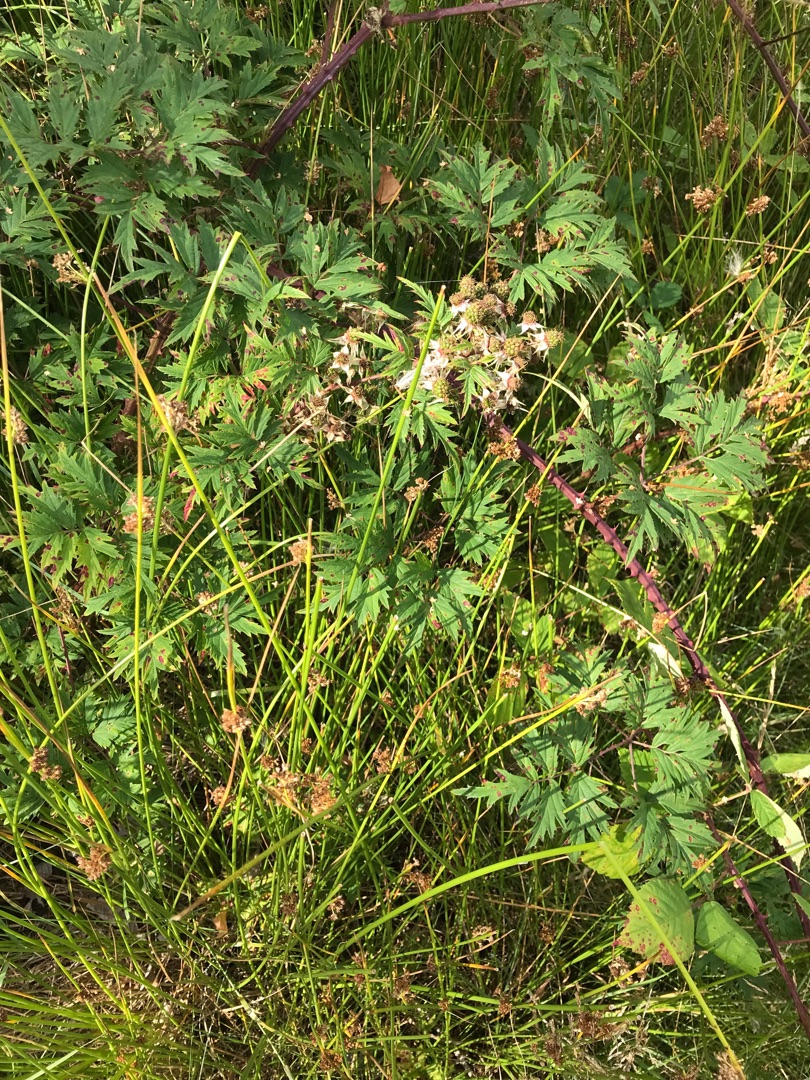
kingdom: Plantae
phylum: Tracheophyta
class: Magnoliopsida
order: Rosales
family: Rosaceae
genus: Rubus
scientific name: Rubus laciniatus
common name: Fliget brombær
